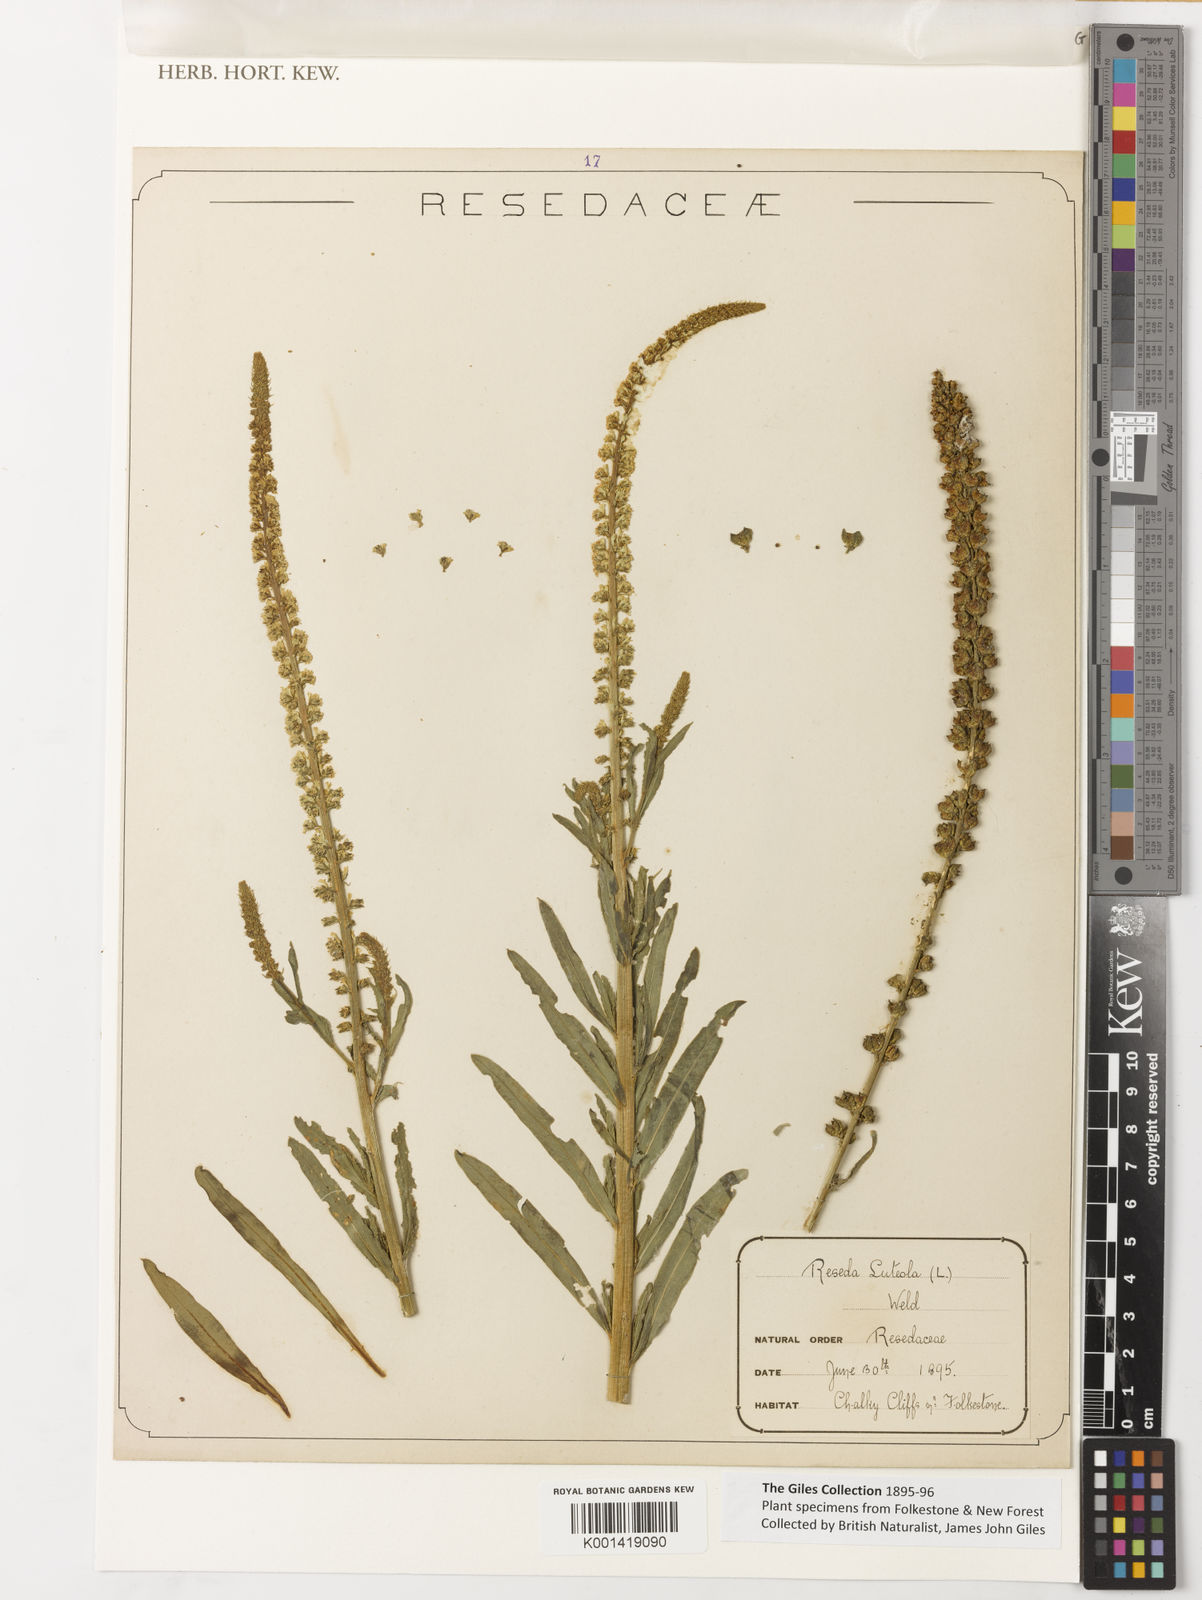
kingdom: Plantae
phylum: Tracheophyta
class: Magnoliopsida
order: Brassicales
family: Resedaceae
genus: Reseda
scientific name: Reseda luteola
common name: Weld
